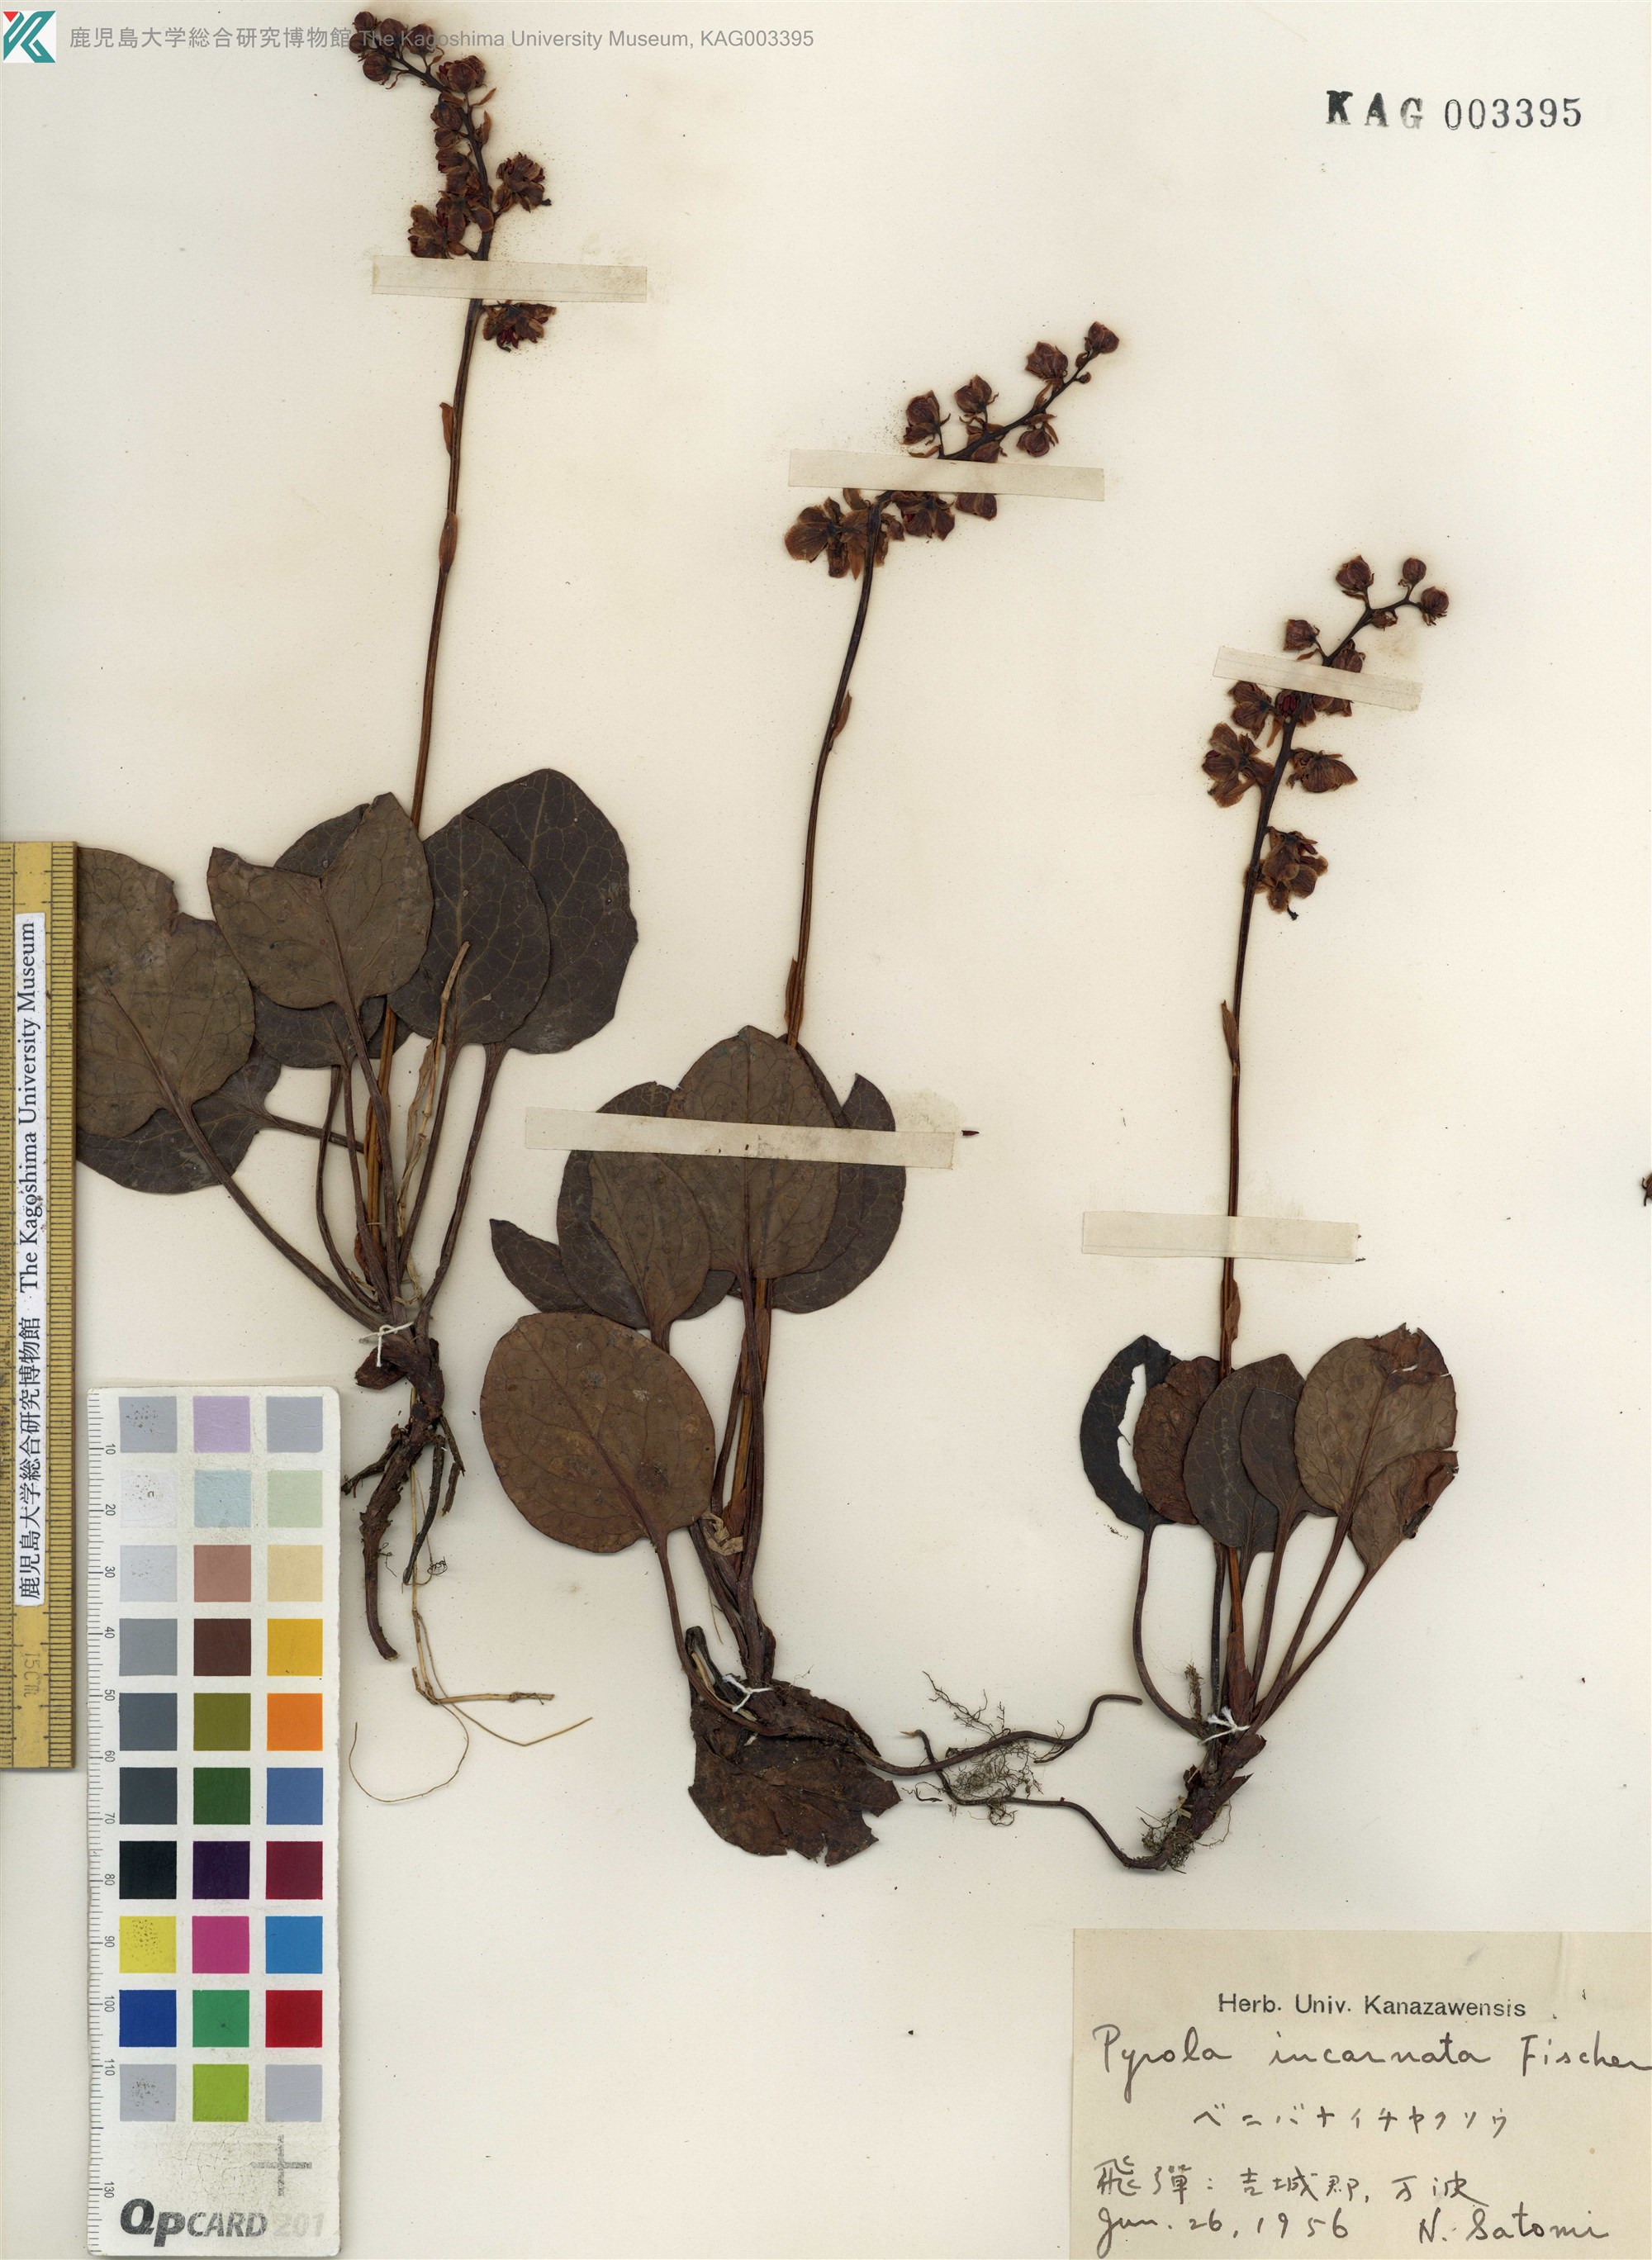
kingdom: Plantae
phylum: Tracheophyta
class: Magnoliopsida
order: Ericales
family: Ericaceae
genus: Pyrola
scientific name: Pyrola asarifolia
